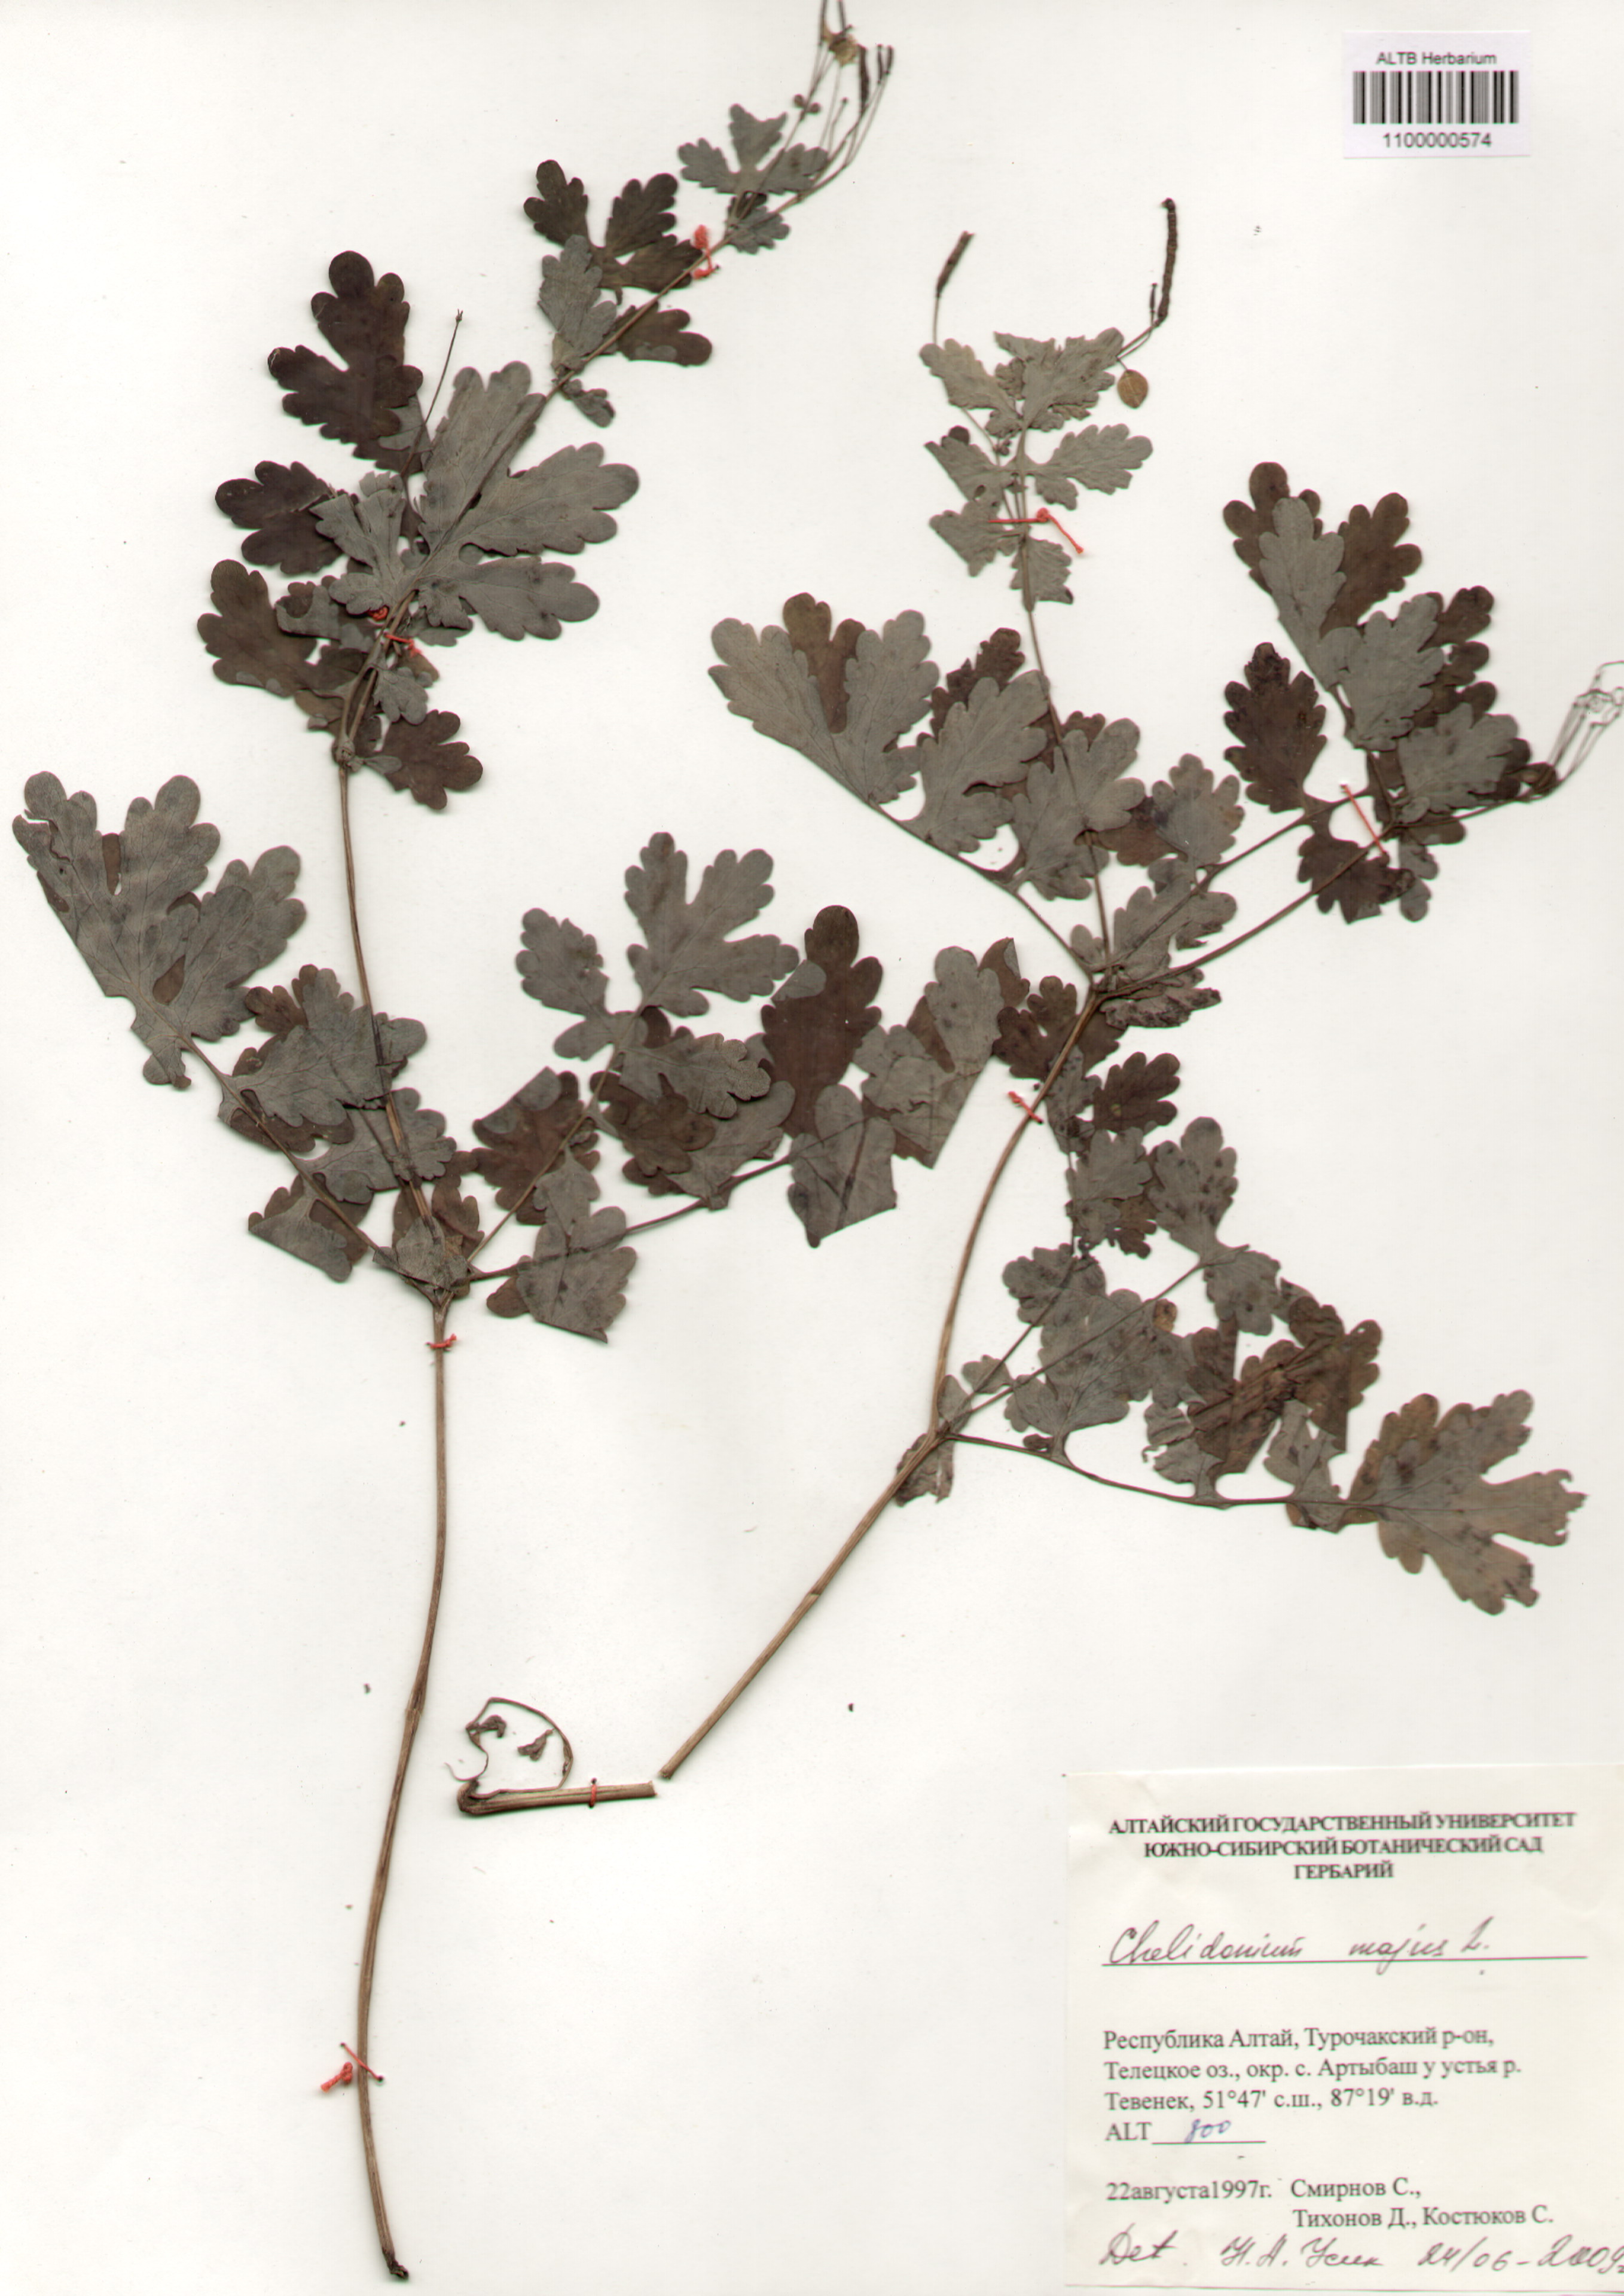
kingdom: Plantae
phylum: Tracheophyta
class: Magnoliopsida
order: Ranunculales
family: Papaveraceae
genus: Chelidonium
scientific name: Chelidonium majus
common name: Greater celandine
